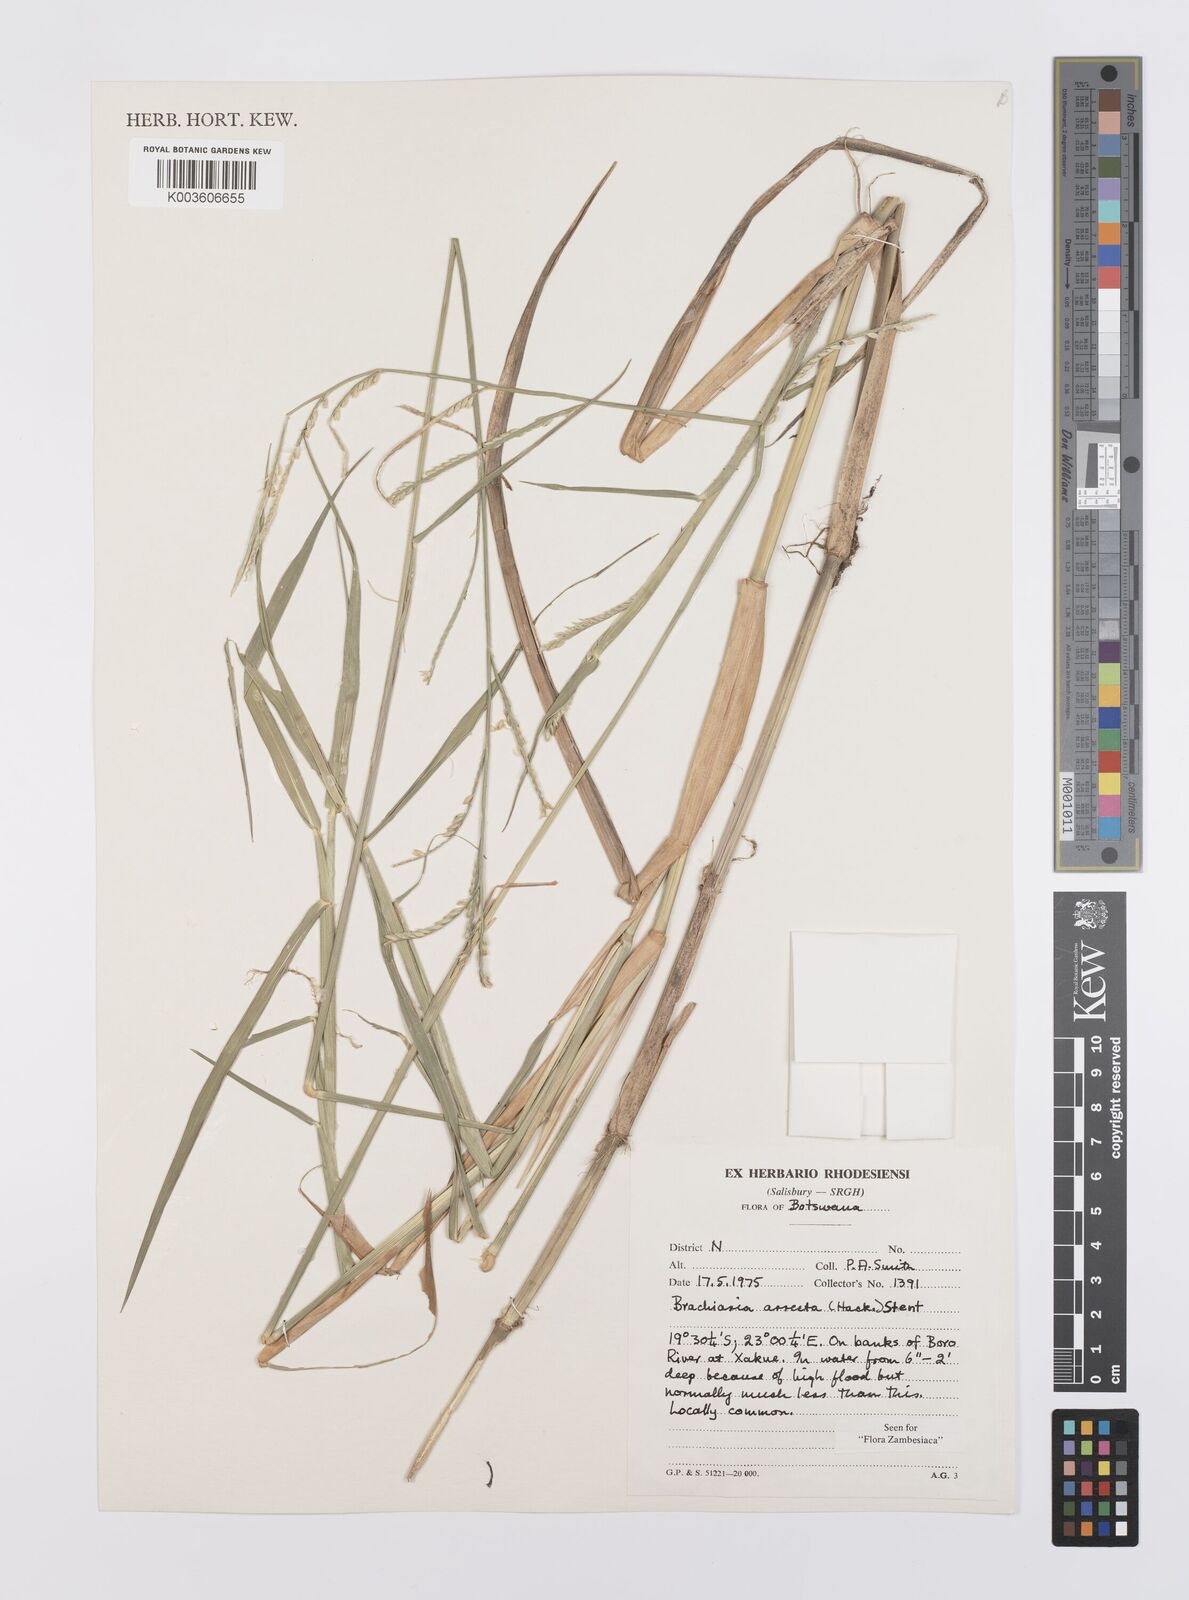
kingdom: Plantae
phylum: Tracheophyta
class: Liliopsida
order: Poales
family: Poaceae
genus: Urochloa
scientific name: Urochloa arrecta
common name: African signalgrass
